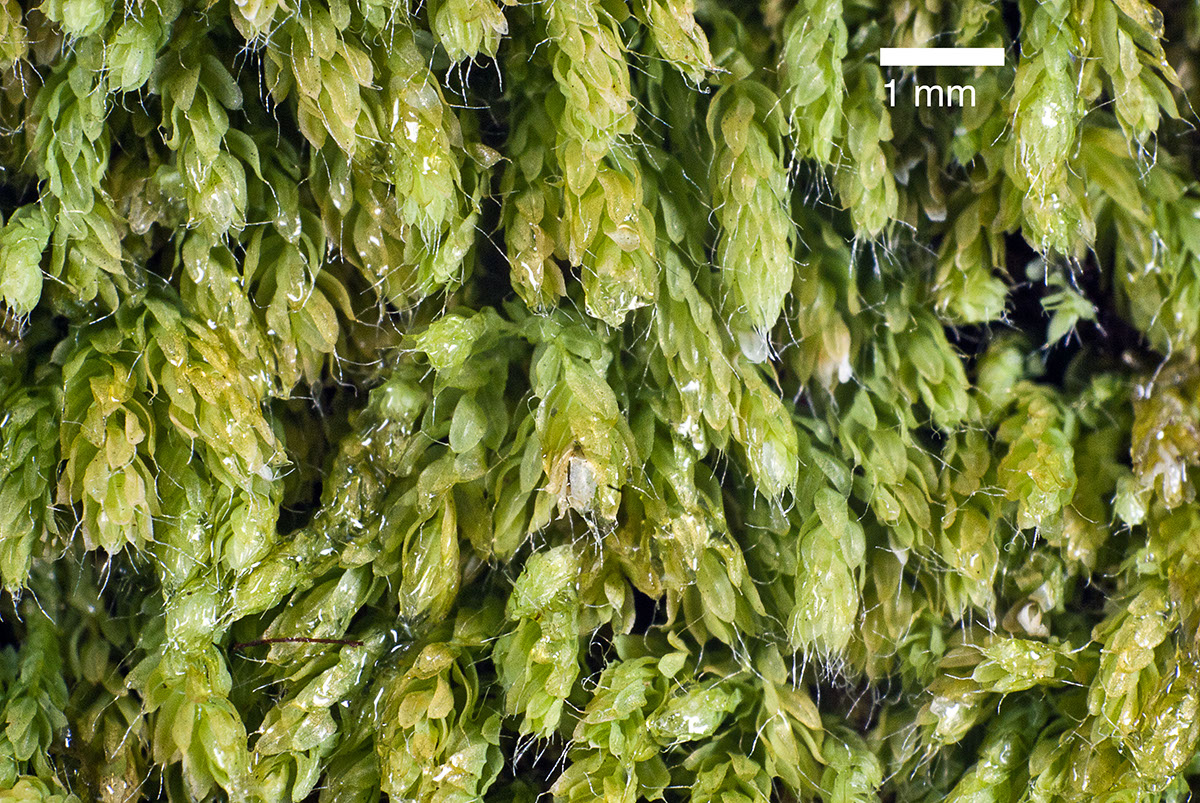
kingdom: Plantae
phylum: Bryophyta
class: Bryopsida
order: Orthodontiales
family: Orthodontiaceae
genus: Hymenodon
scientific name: Hymenodon pilifer
